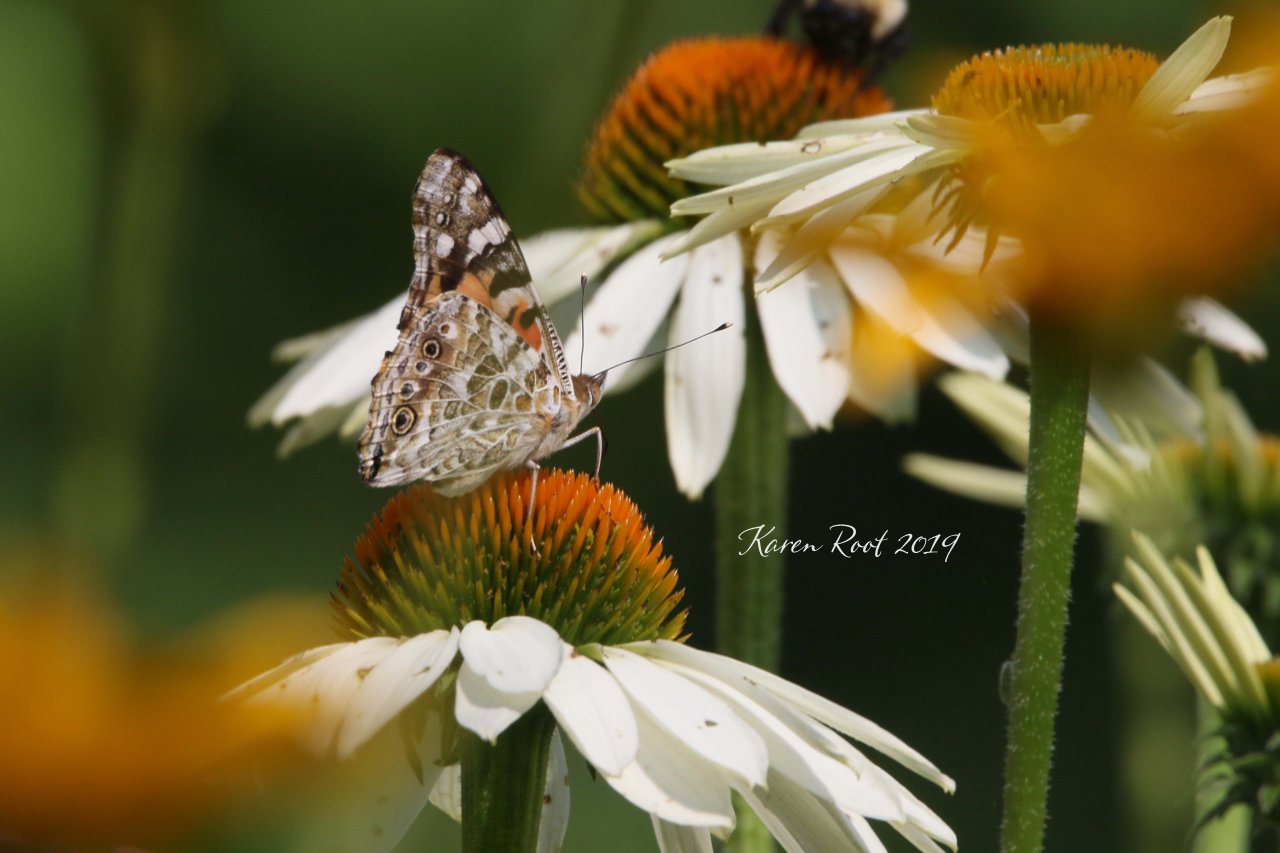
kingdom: Animalia
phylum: Arthropoda
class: Insecta
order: Lepidoptera
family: Nymphalidae
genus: Vanessa
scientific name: Vanessa cardui
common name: Painted Lady
